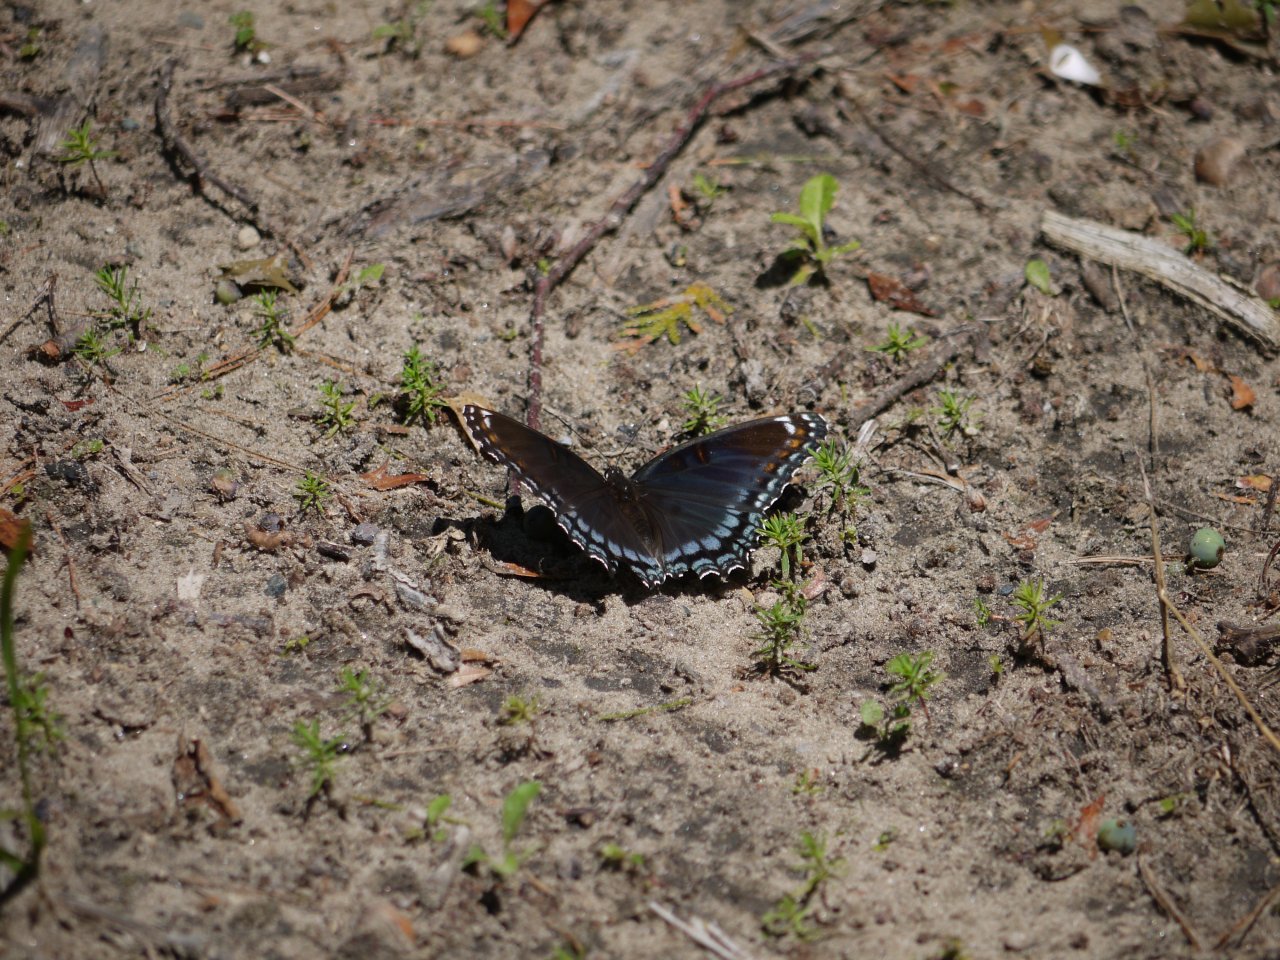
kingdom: Animalia
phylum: Arthropoda
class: Insecta
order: Lepidoptera
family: Nymphalidae
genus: Limenitis
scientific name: Limenitis astyanax
